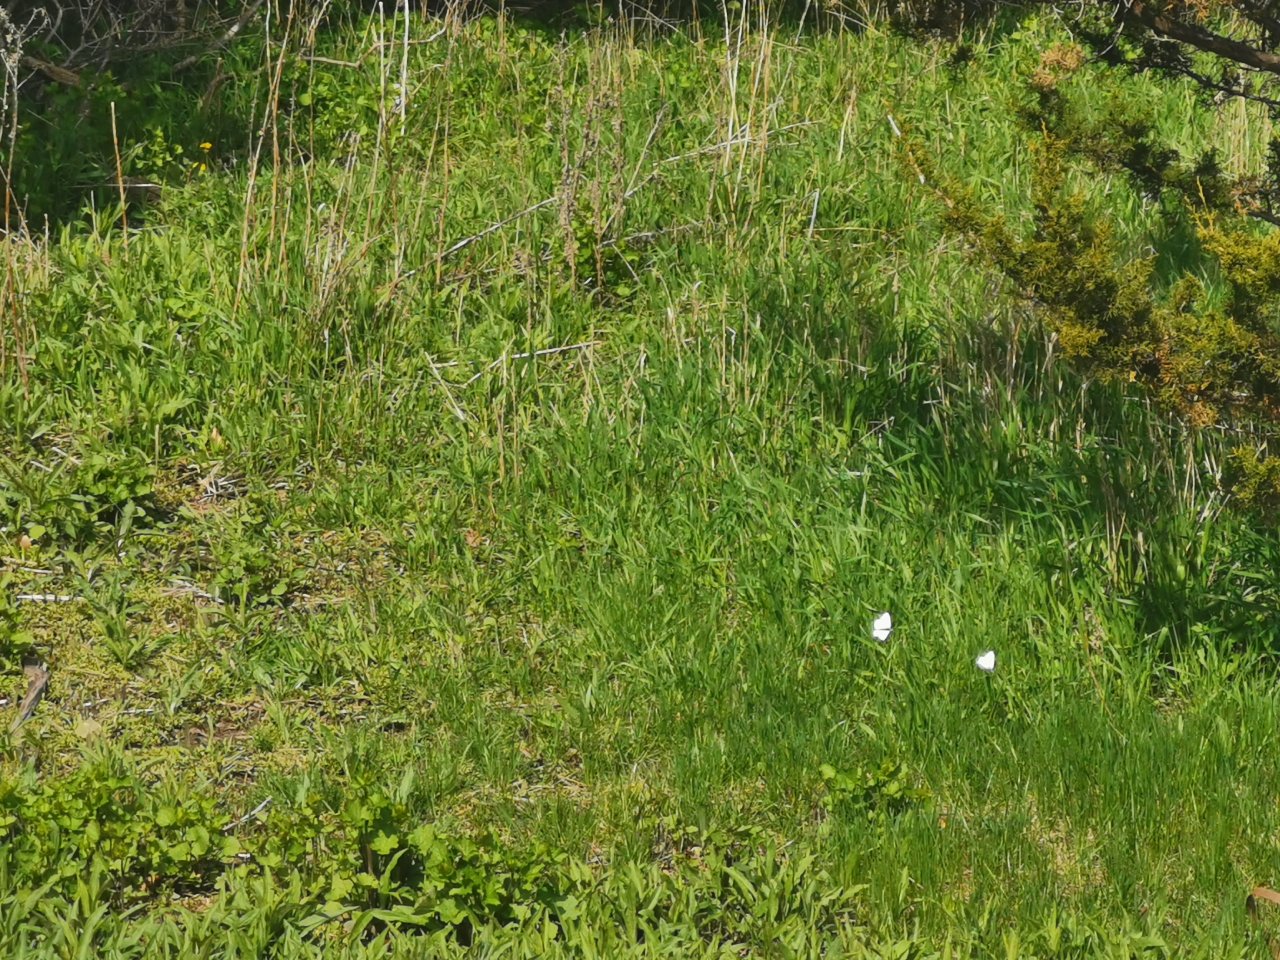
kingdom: Animalia
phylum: Arthropoda
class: Insecta
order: Lepidoptera
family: Pieridae
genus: Pieris
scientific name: Pieris rapae
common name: Cabbage White
